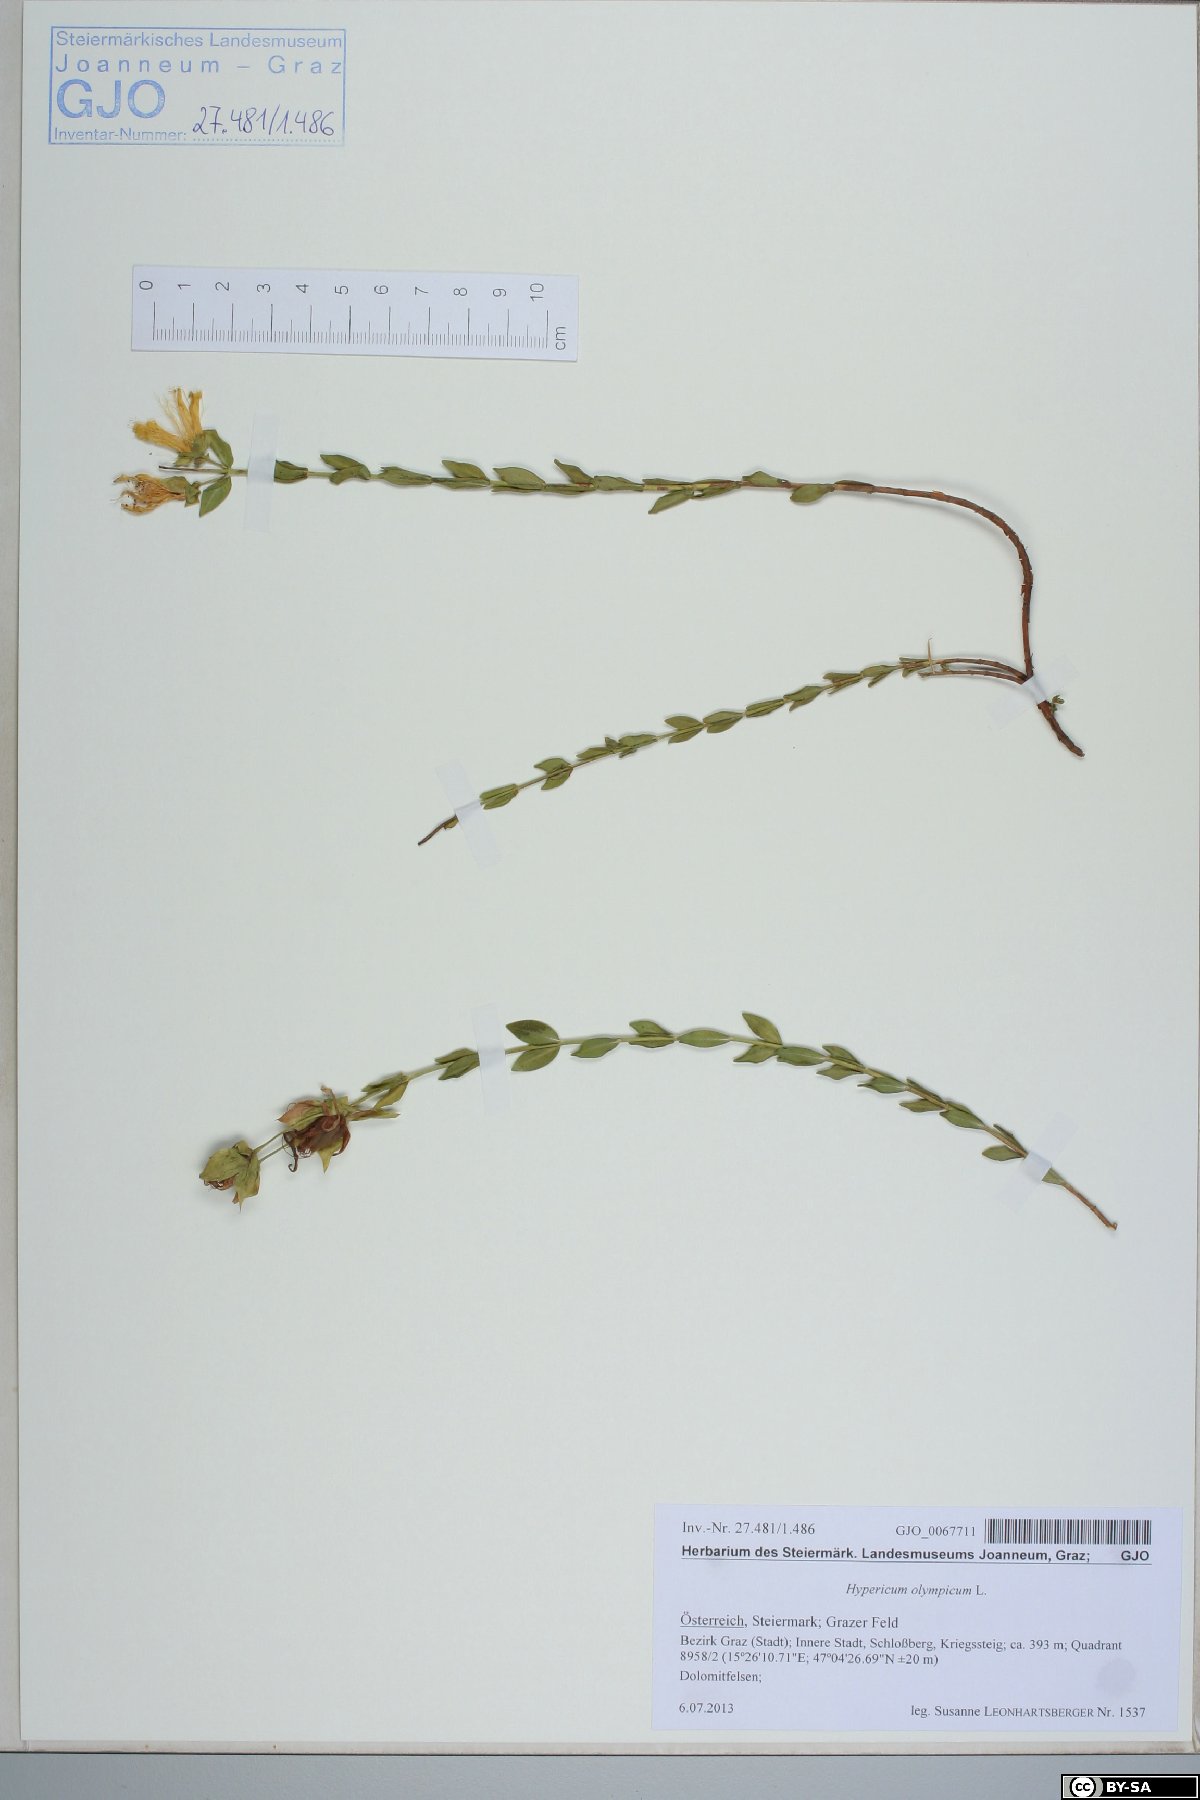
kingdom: Plantae
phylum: Tracheophyta
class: Magnoliopsida
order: Malpighiales
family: Hypericaceae
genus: Hypericum
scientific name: Hypericum olympicum
